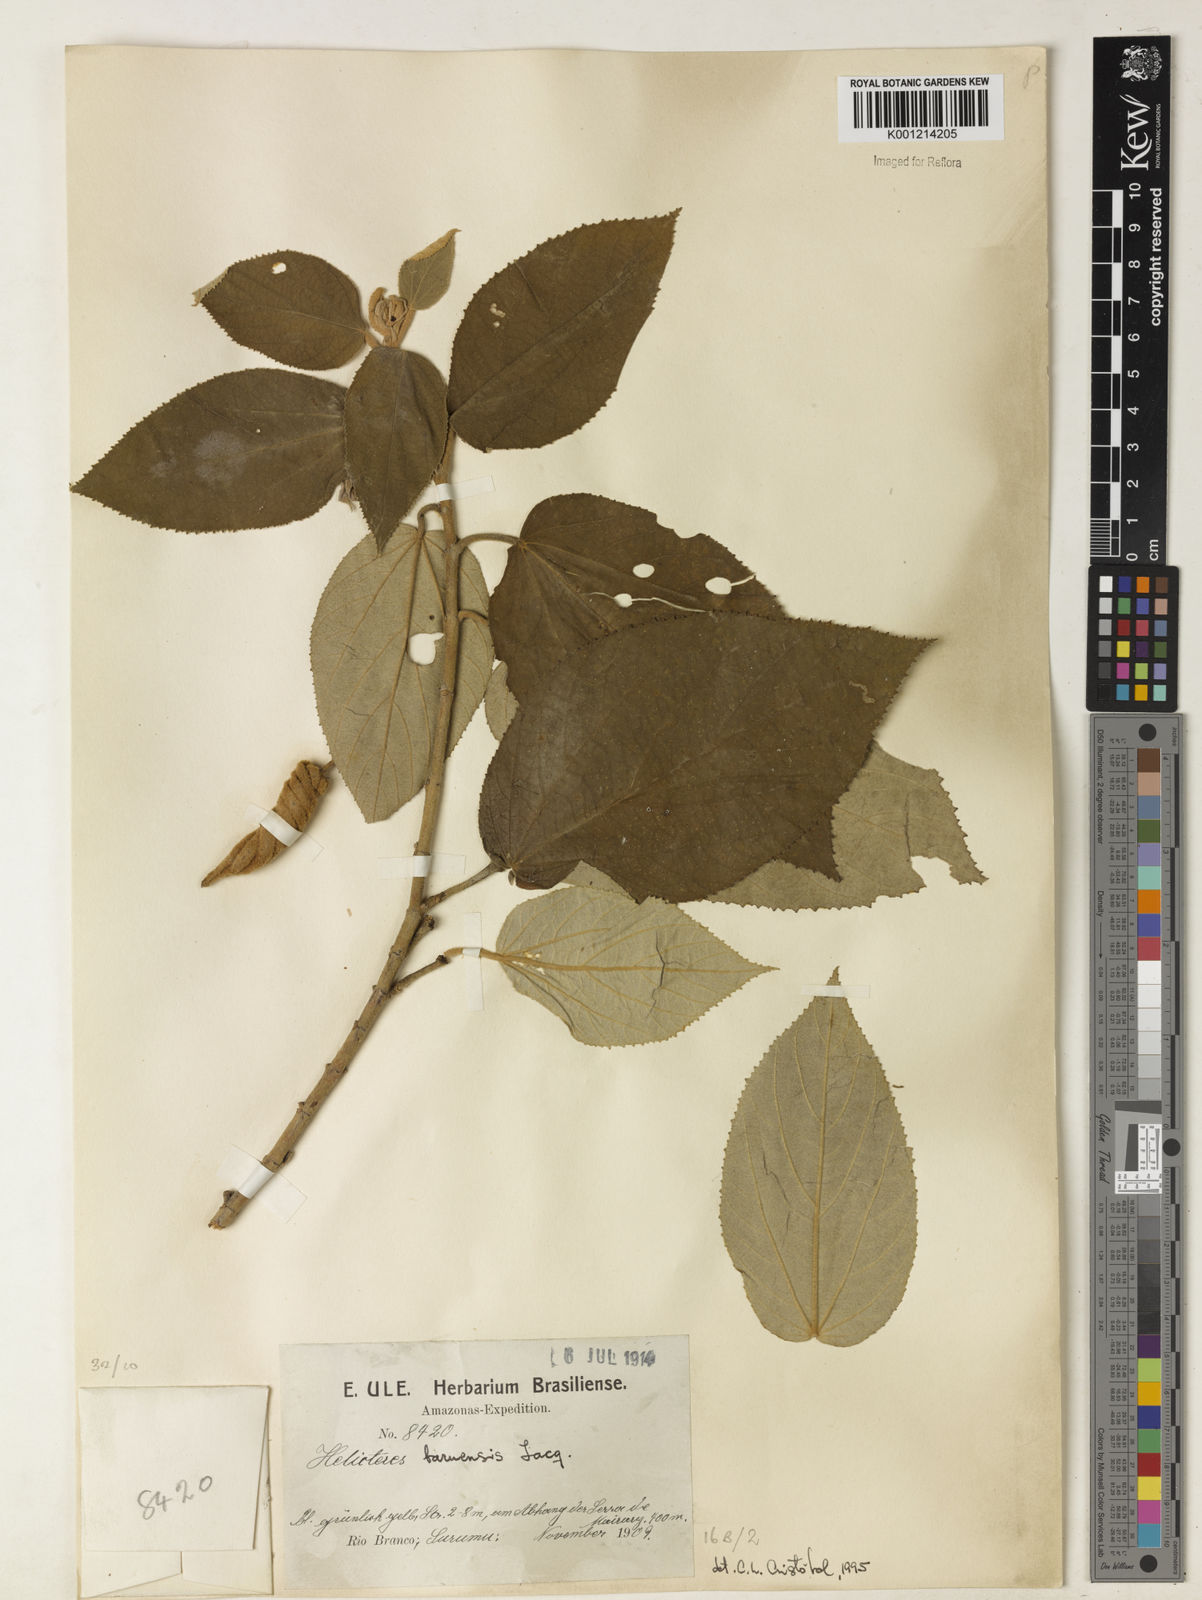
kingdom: Plantae
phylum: Tracheophyta
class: Magnoliopsida
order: Malvales
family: Malvaceae
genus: Helicteres
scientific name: Helicteres baruensis
